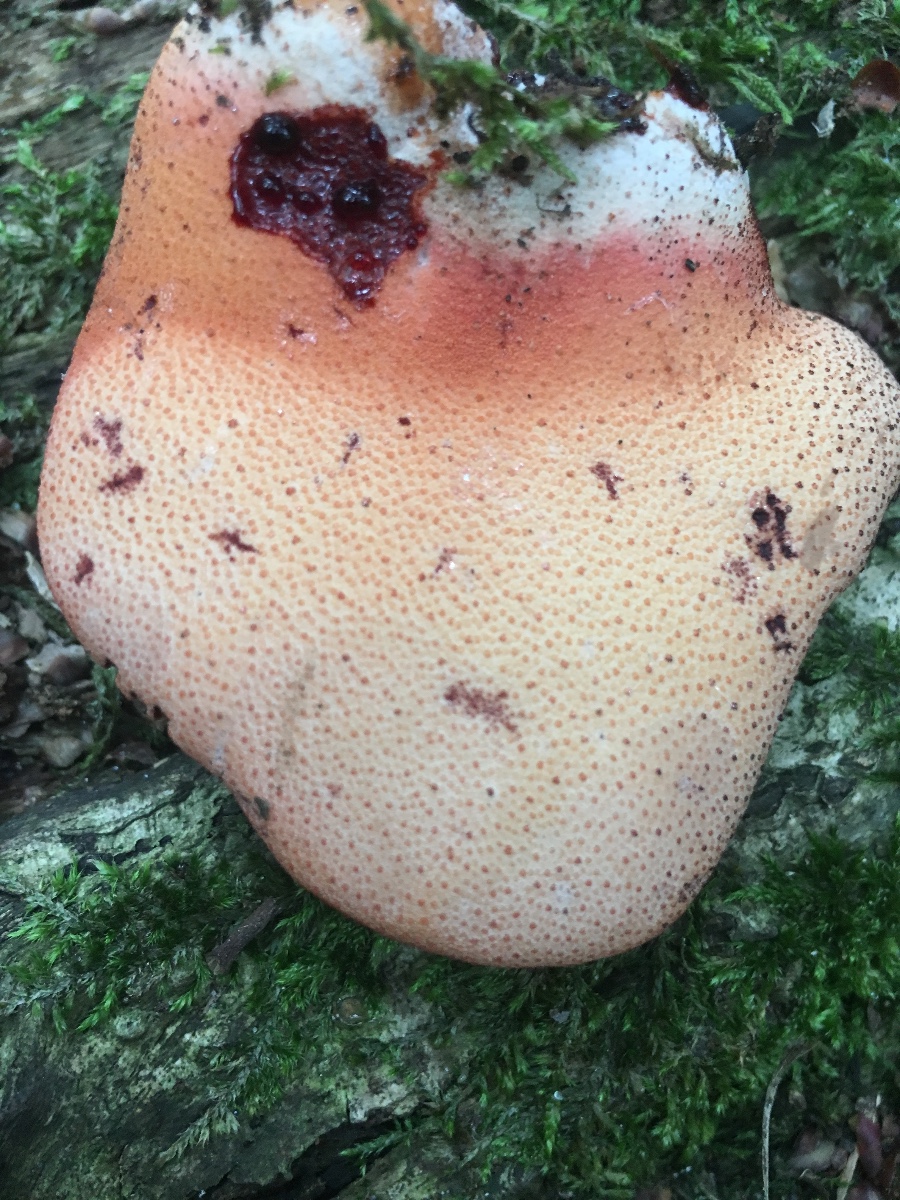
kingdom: Fungi
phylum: Basidiomycota
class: Agaricomycetes
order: Agaricales
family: Fistulinaceae
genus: Fistulina
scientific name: Fistulina hepatica
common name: oksetunge
